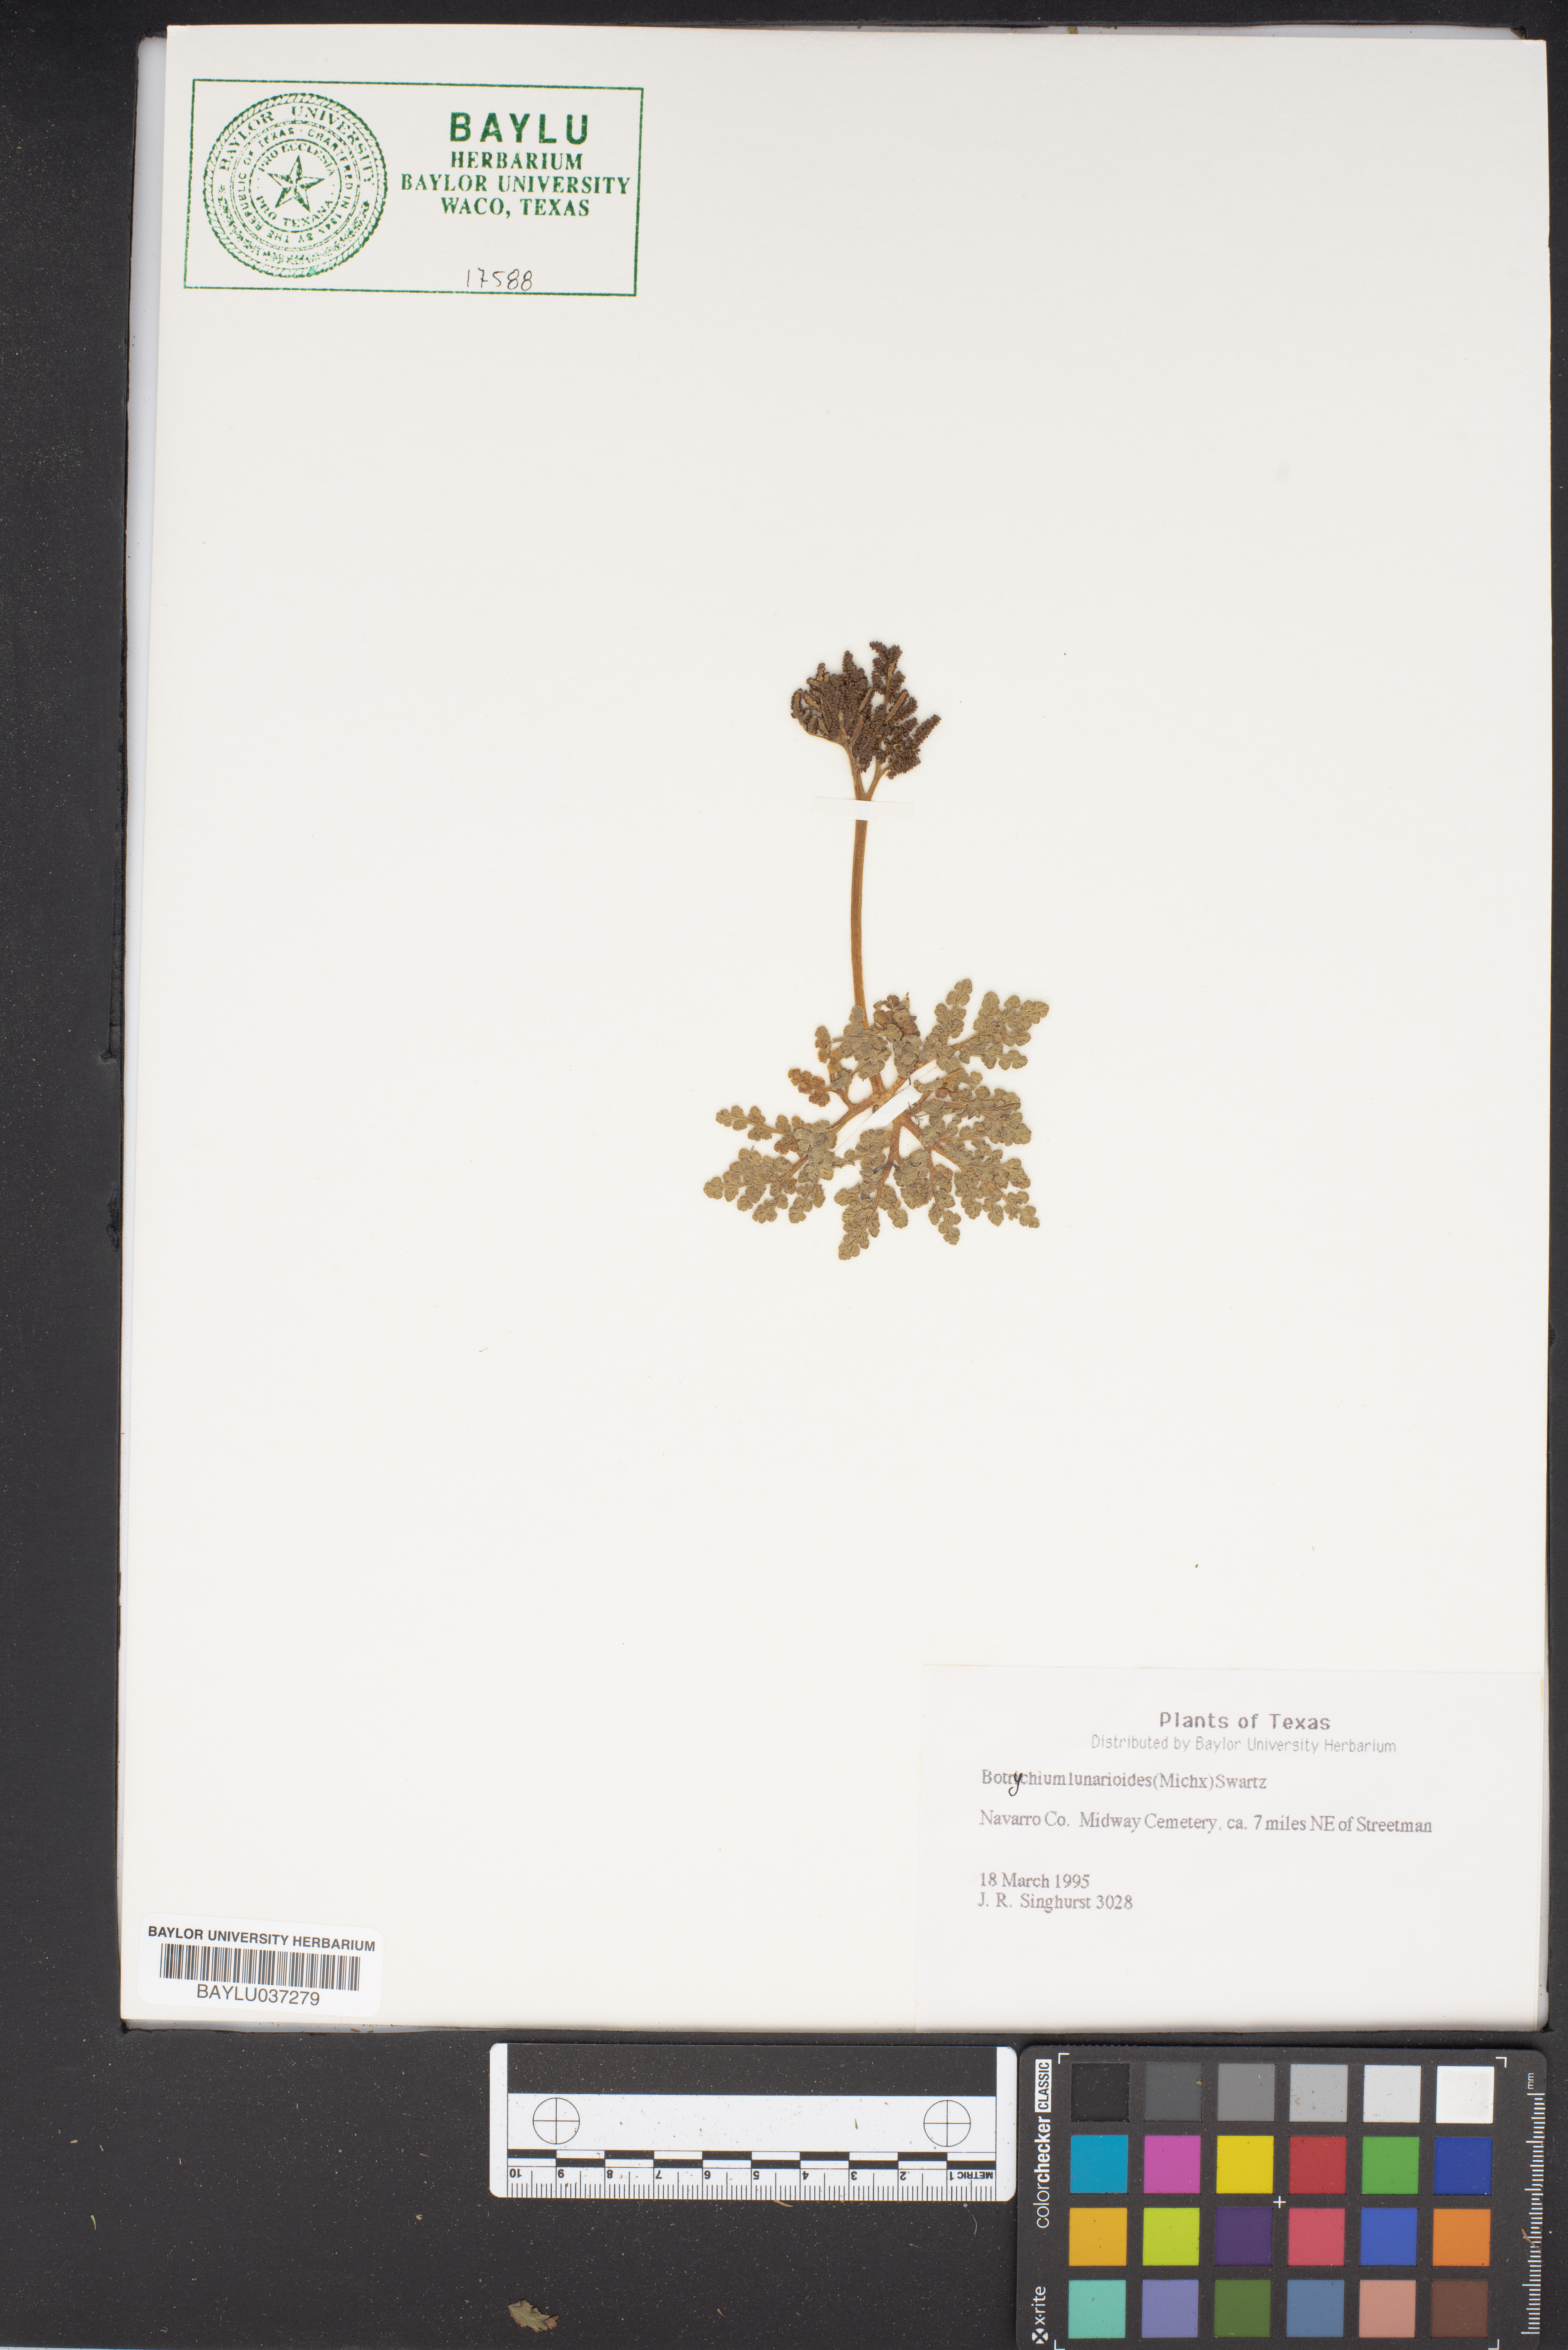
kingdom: Plantae
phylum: Tracheophyta
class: Polypodiopsida
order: Ophioglossales
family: Ophioglossaceae
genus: Sceptridium
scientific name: Sceptridium lunarioides
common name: Prostrate grapefern
